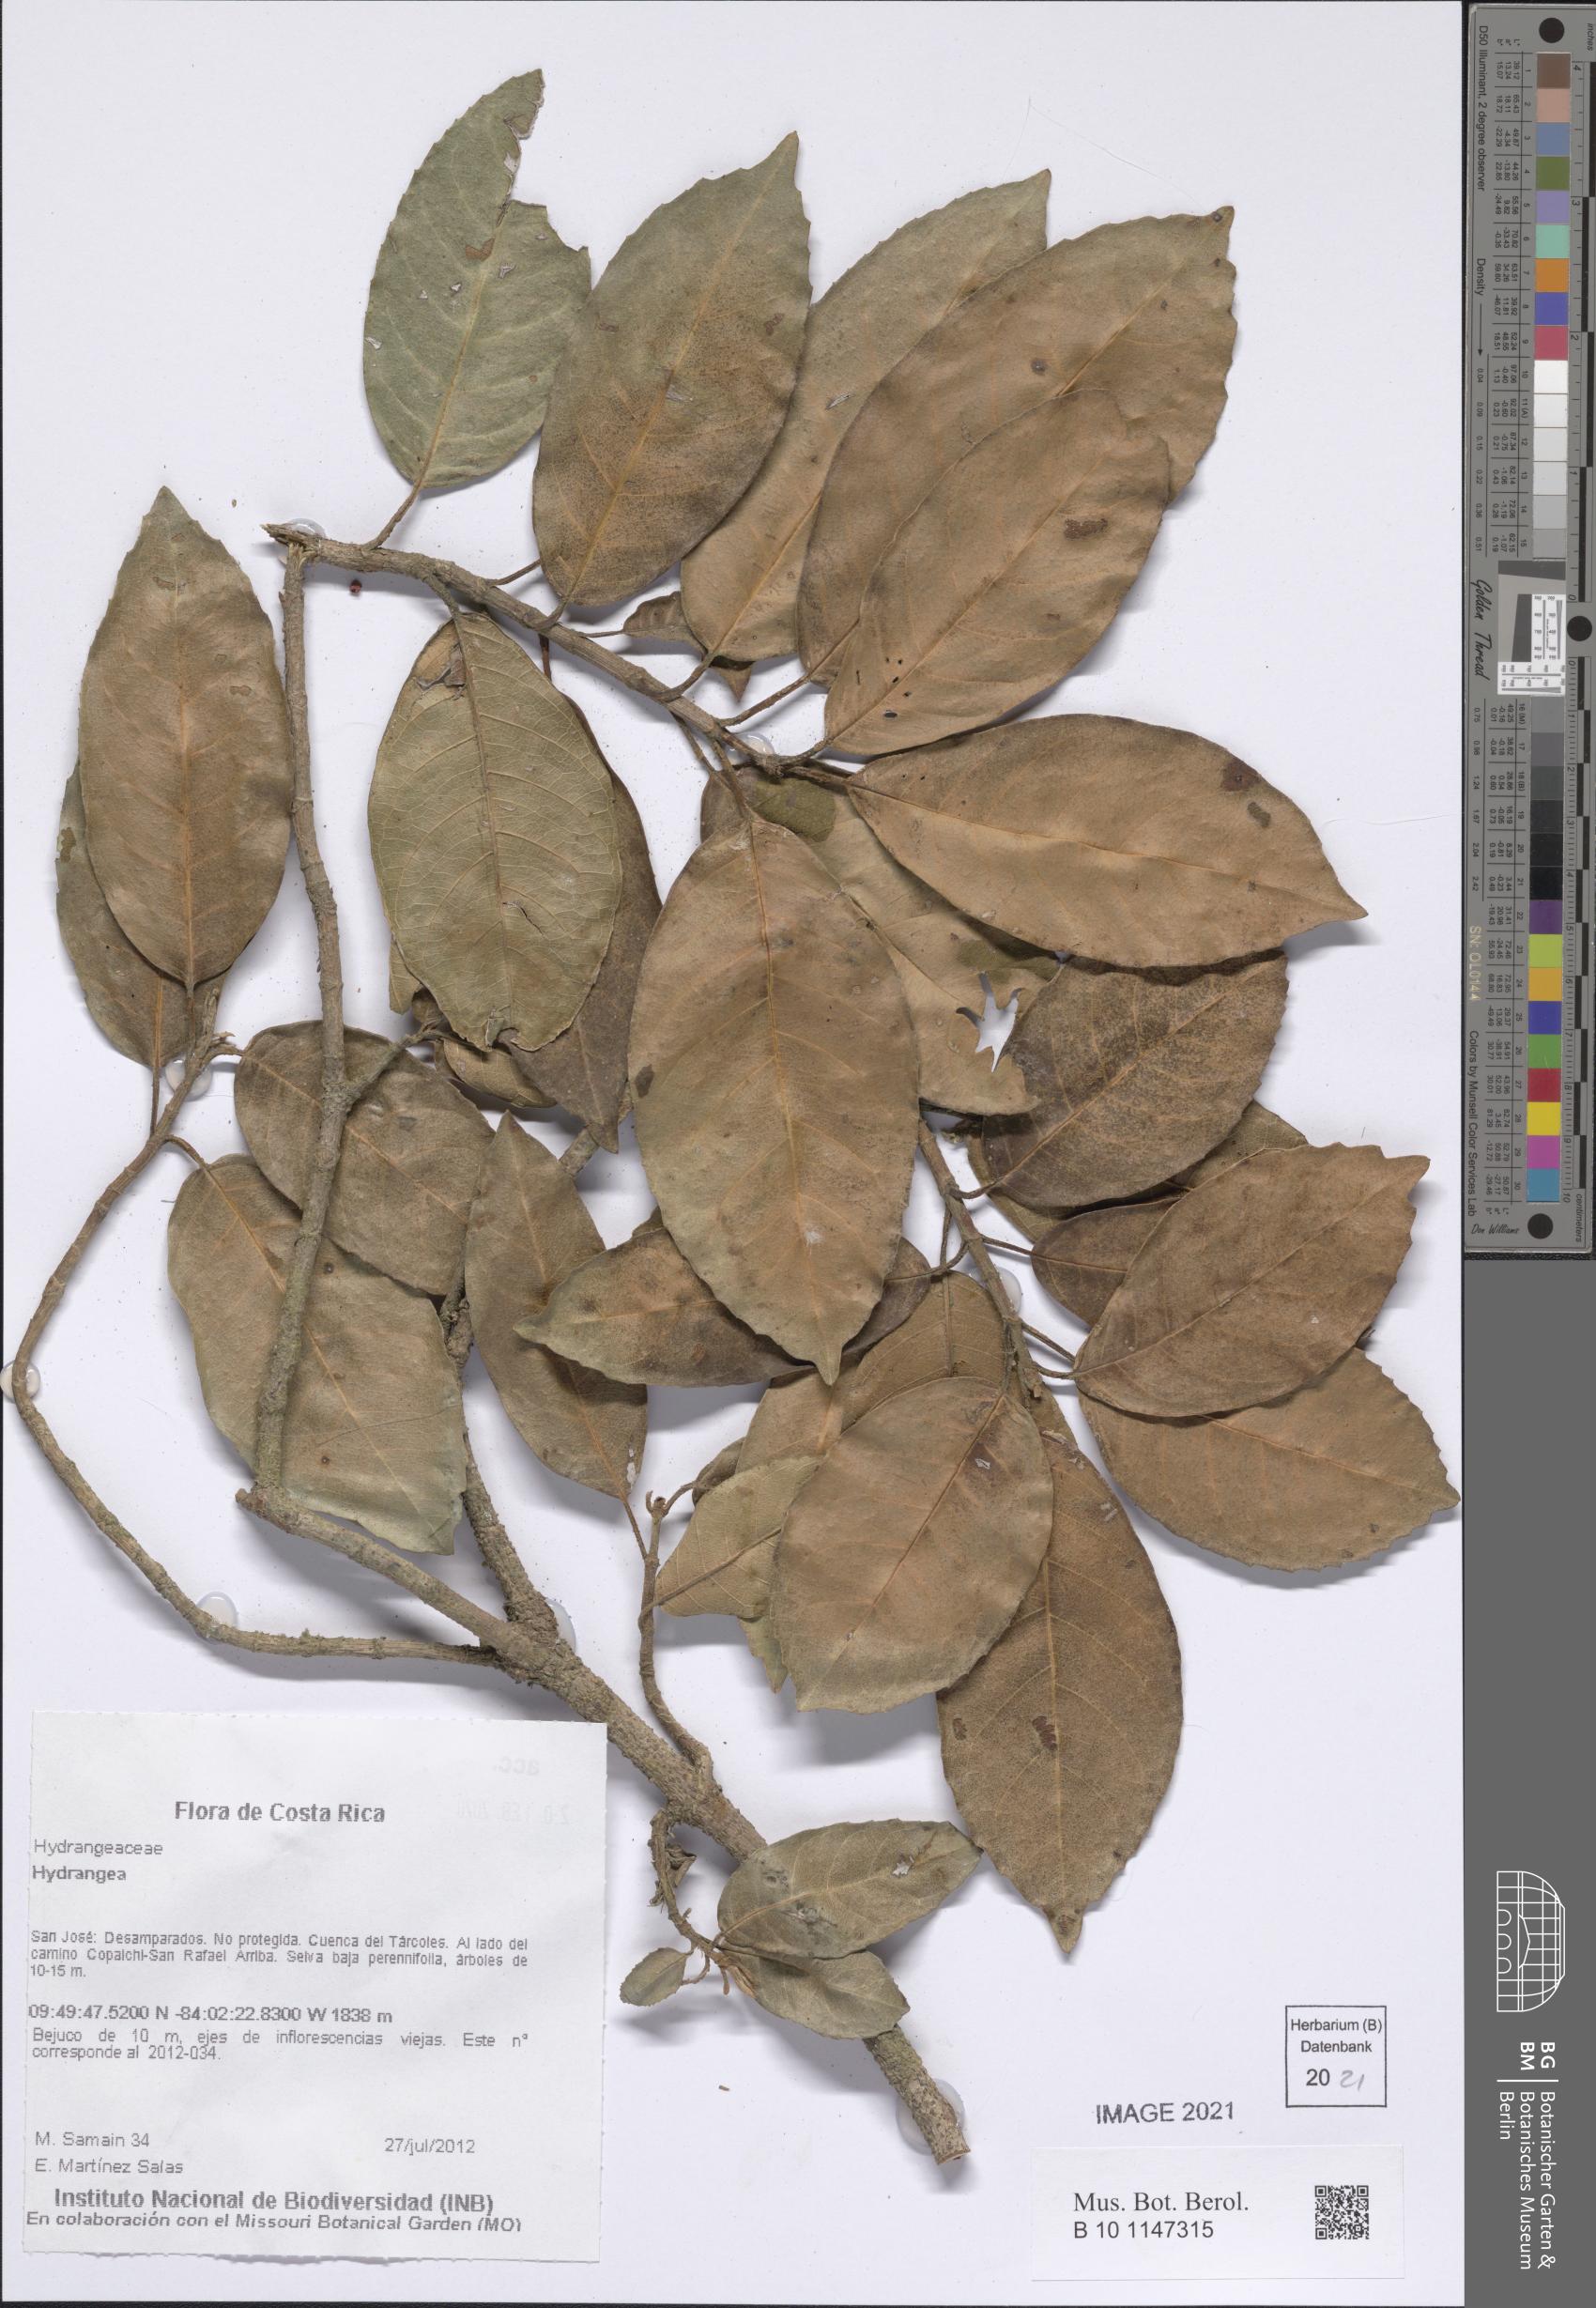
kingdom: Plantae
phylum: Tracheophyta
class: Magnoliopsida
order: Cornales
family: Hydrangeaceae
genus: Hydrangea
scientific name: Hydrangea
